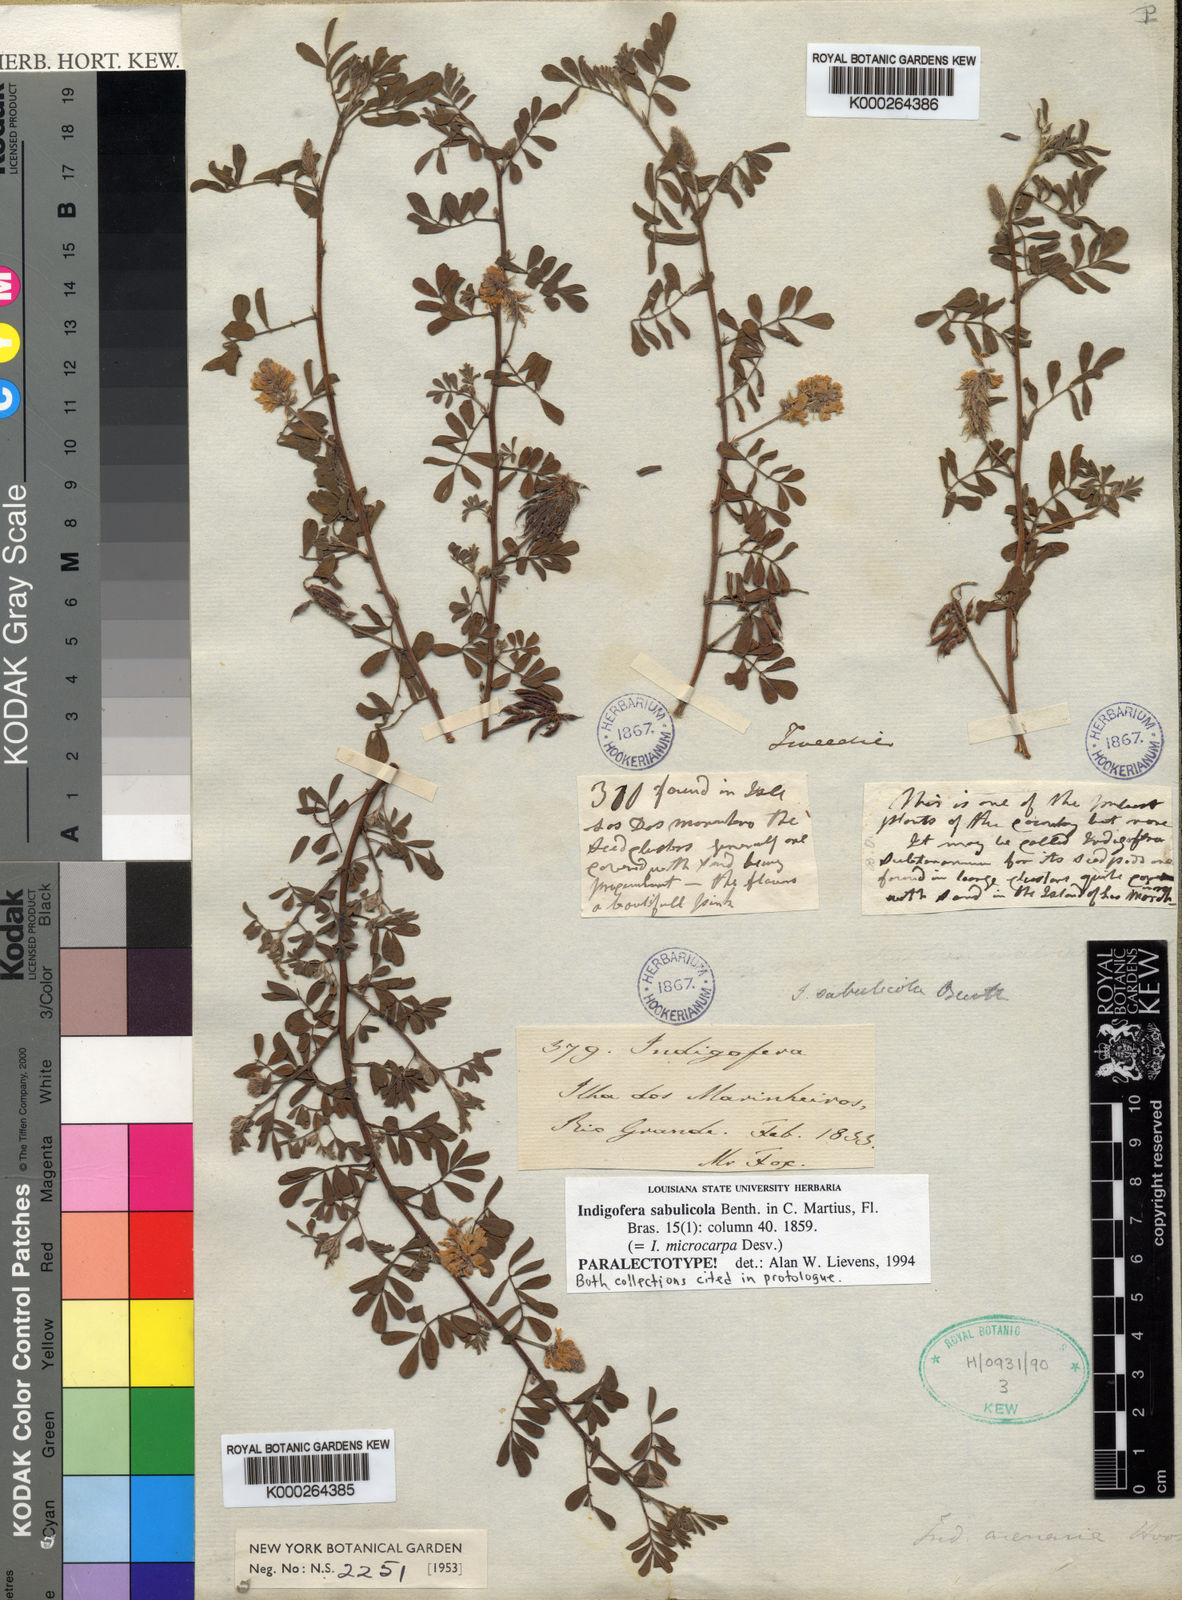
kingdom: Plantae
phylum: Tracheophyta
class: Magnoliopsida
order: Fabales
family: Fabaceae
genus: Indigofera
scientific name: Indigofera microcarpa
